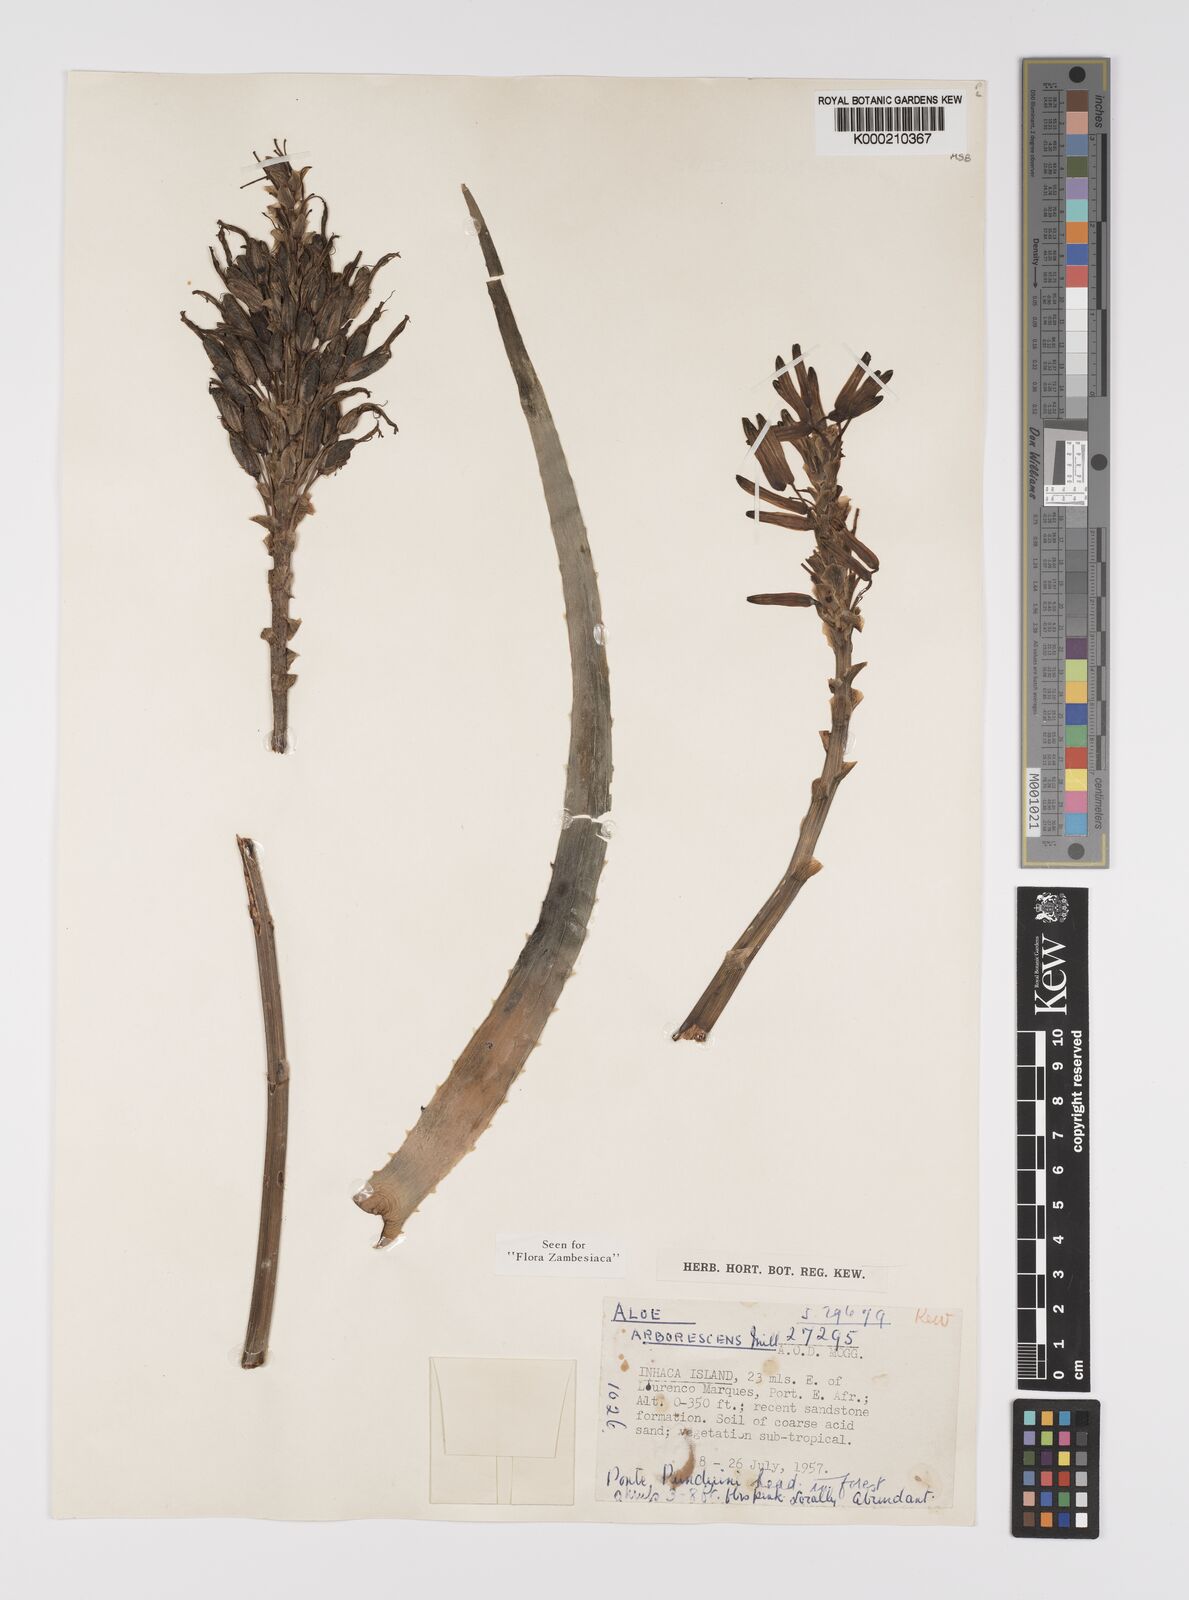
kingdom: Plantae
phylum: Tracheophyta
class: Liliopsida
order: Asparagales
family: Asphodelaceae
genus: Aloe
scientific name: Aloe arborescens
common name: Candelabra aloe
